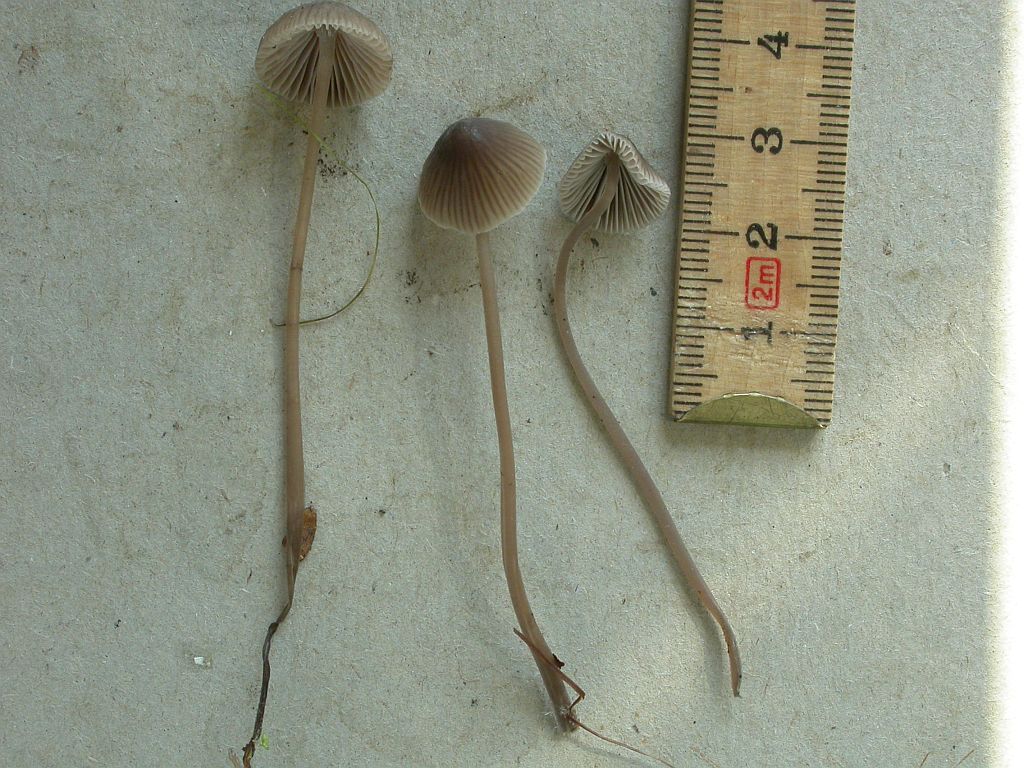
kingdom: Fungi
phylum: Basidiomycota
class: Agaricomycetes
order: Agaricales
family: Mycenaceae
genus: Mycena
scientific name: Mycena leptocephala
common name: klor-huesvamp
